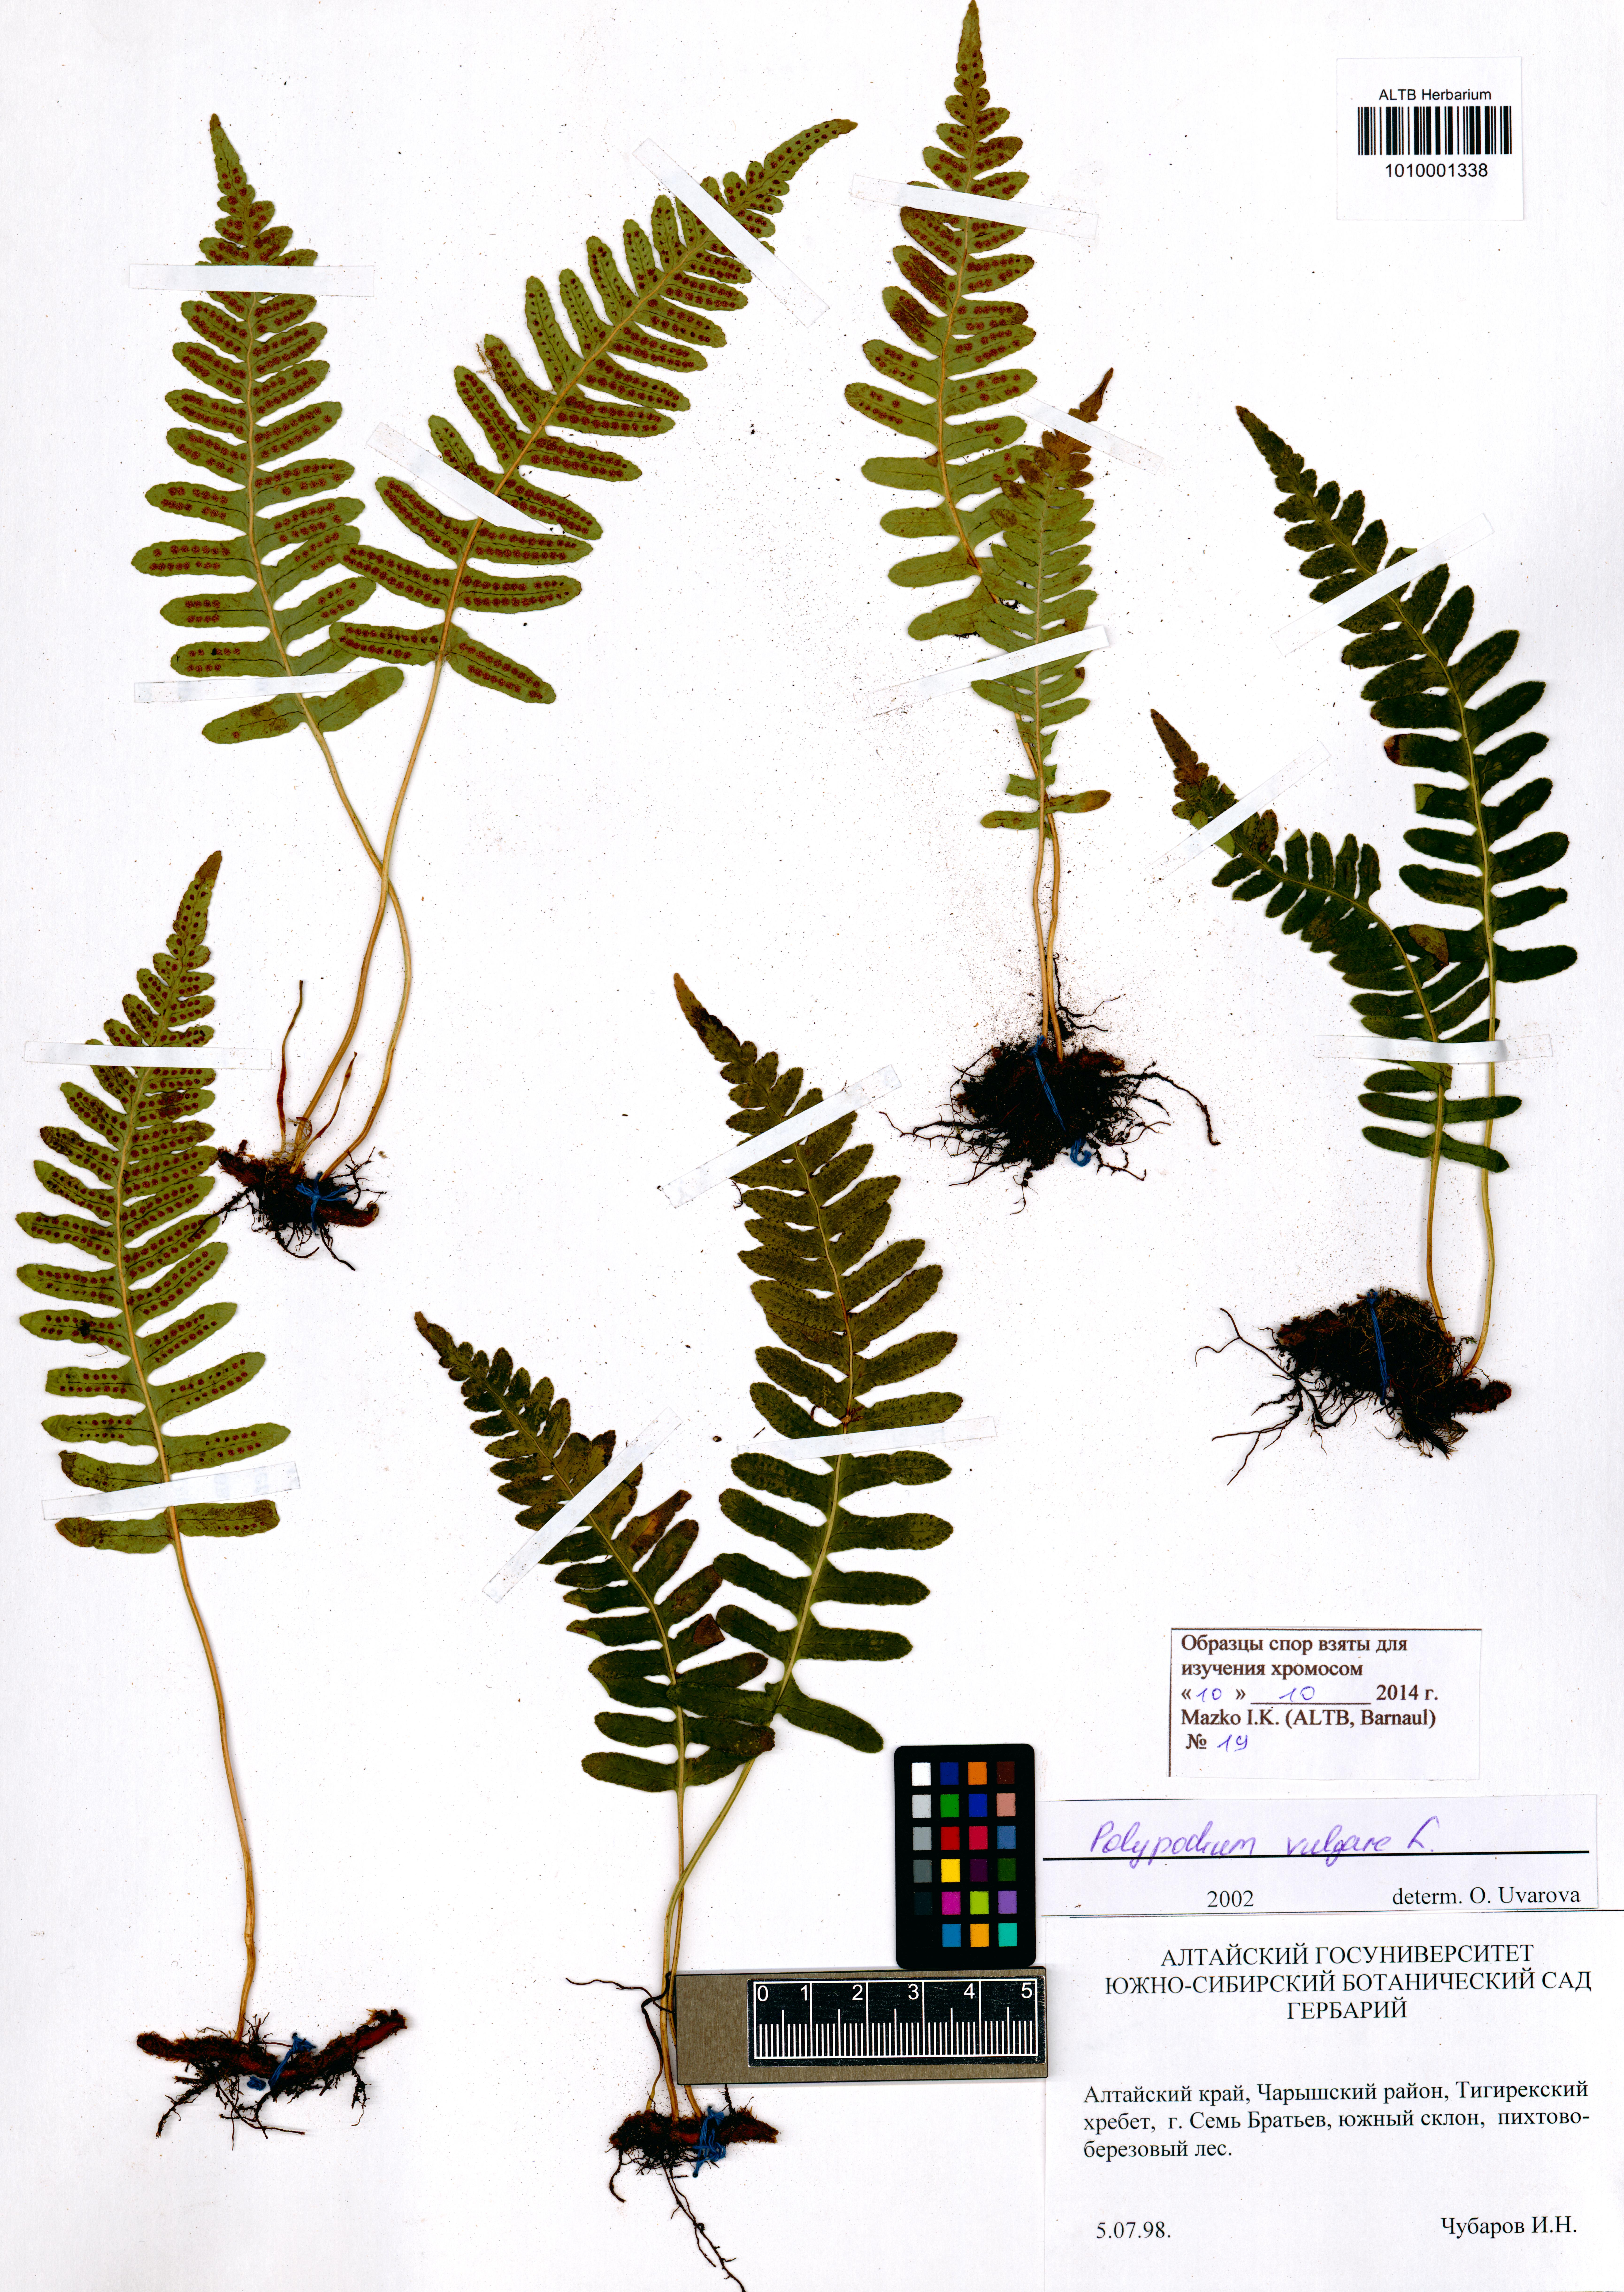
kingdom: Plantae
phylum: Tracheophyta
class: Polypodiopsida
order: Polypodiales
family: Polypodiaceae
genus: Polypodium
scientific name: Polypodium vulgare
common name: Common polypody
